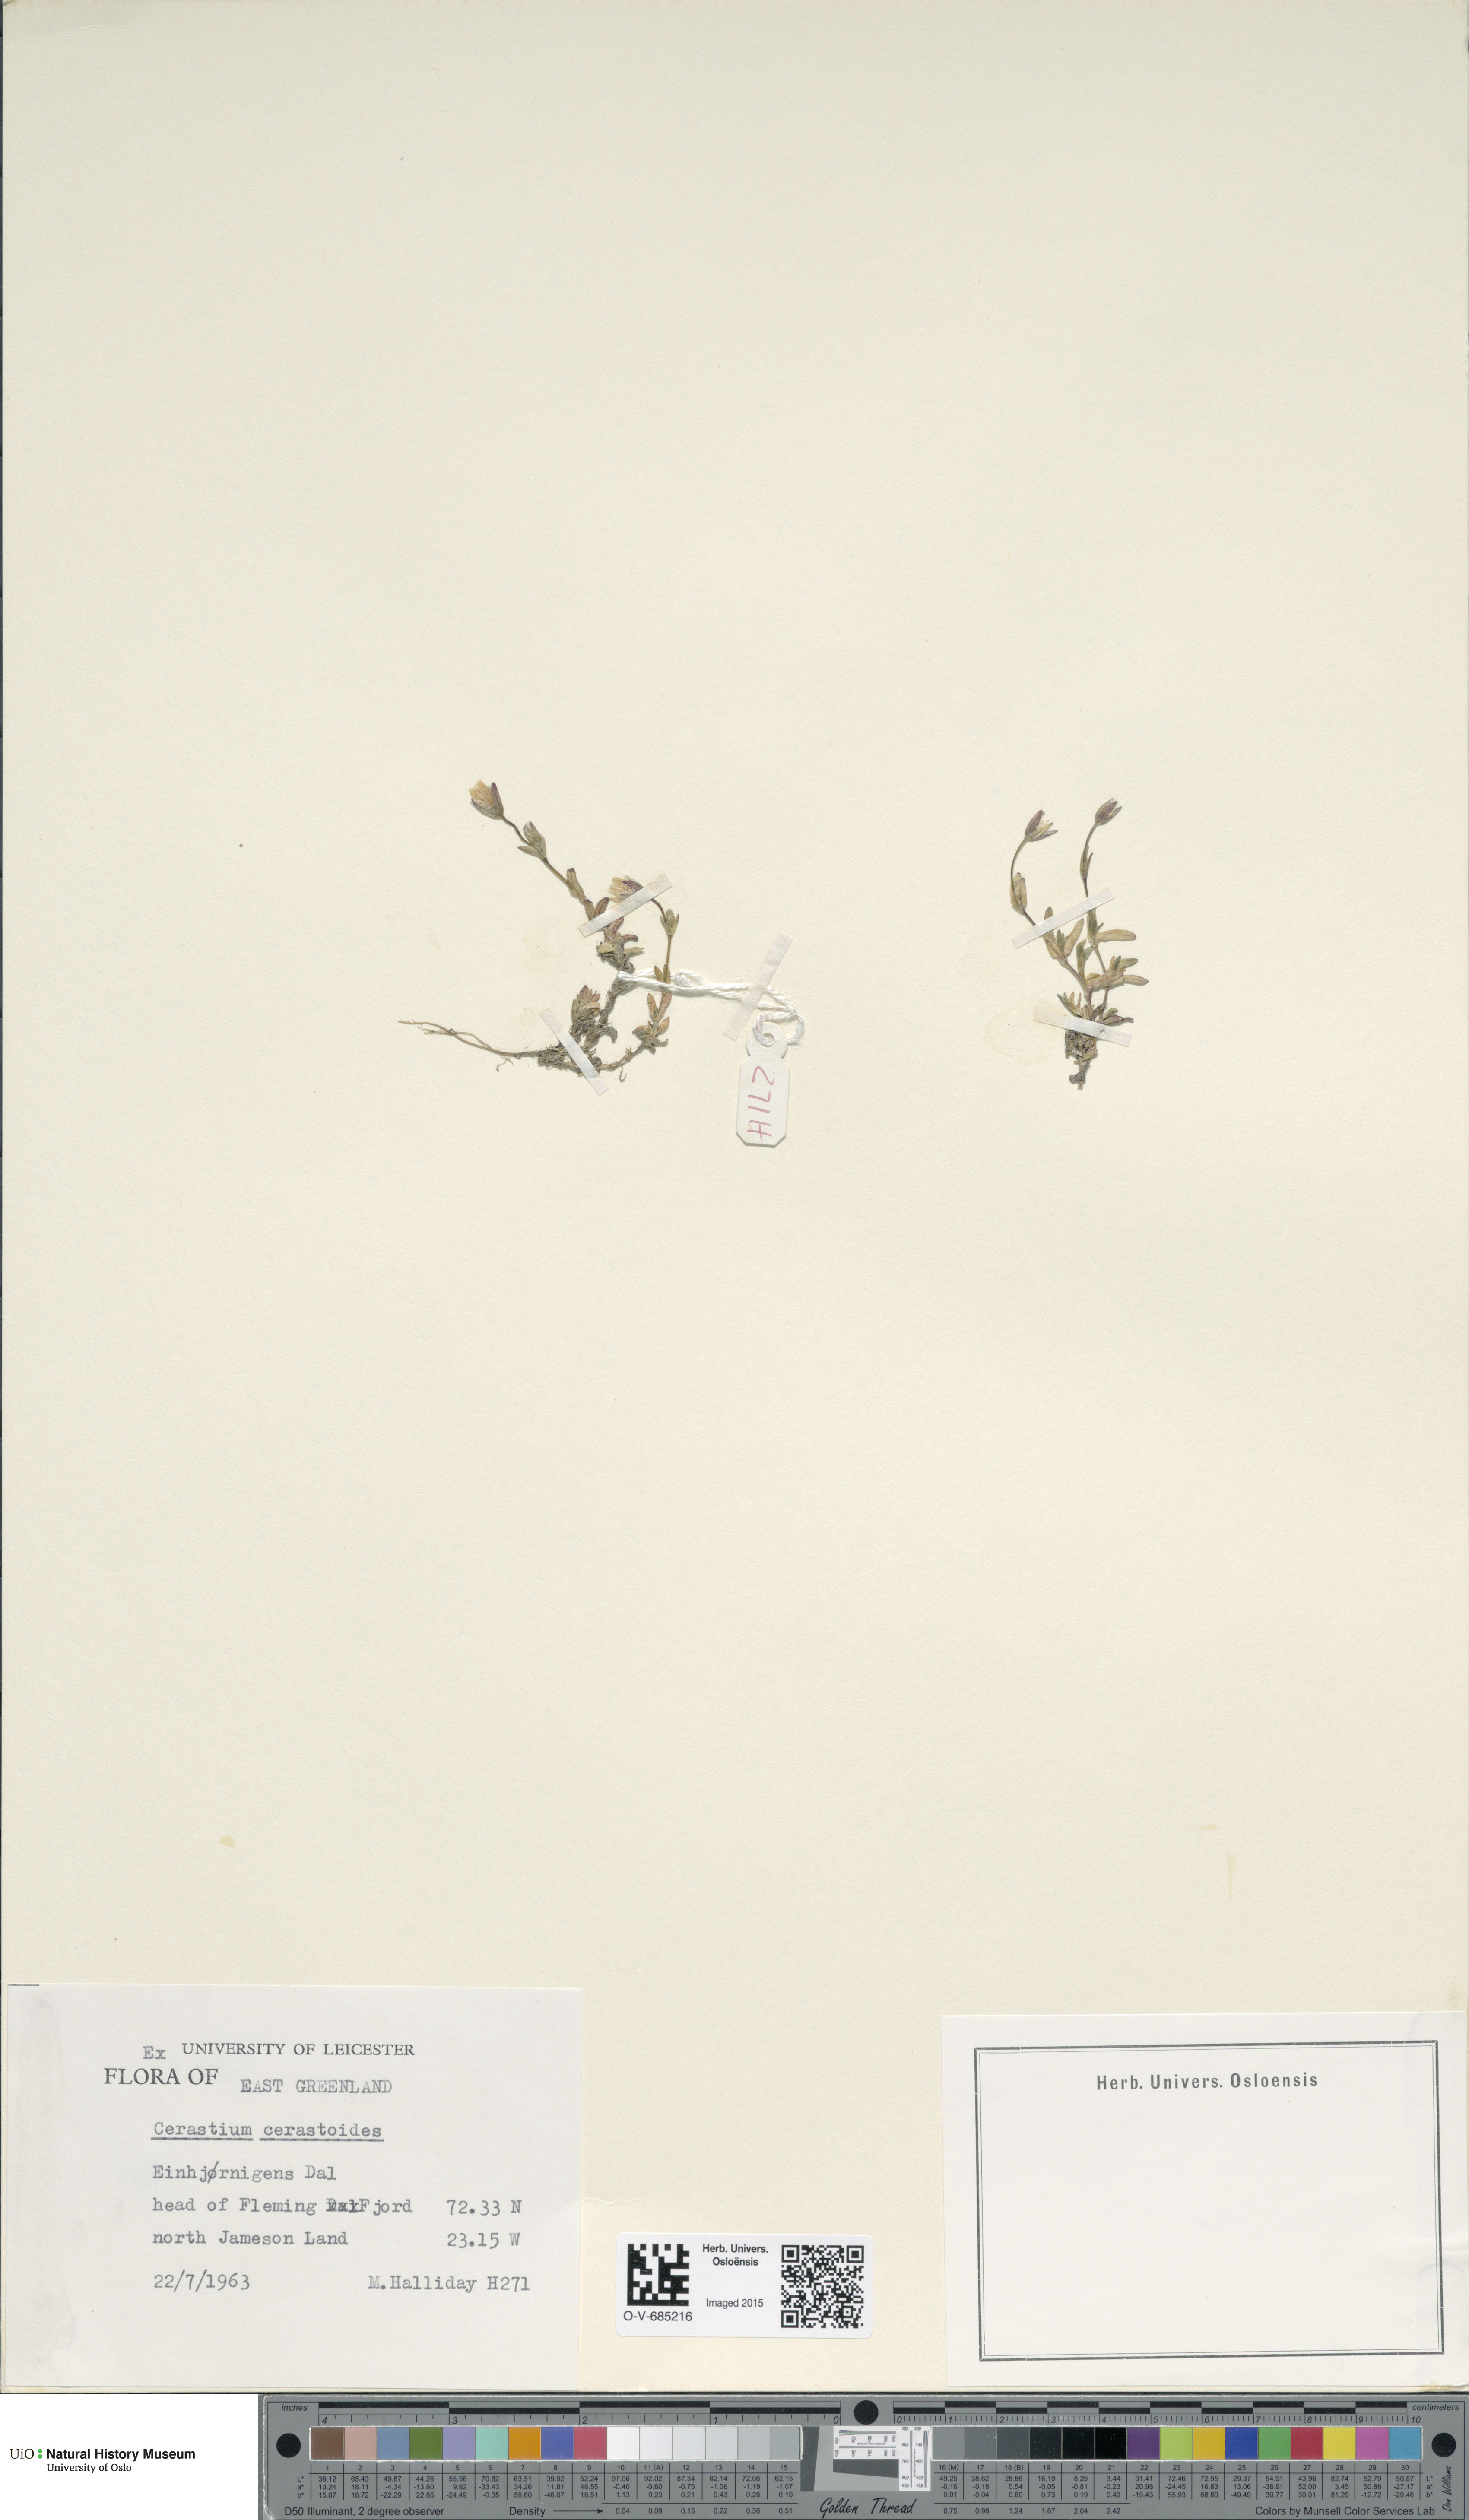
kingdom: Plantae
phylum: Tracheophyta
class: Magnoliopsida
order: Caryophyllales
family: Caryophyllaceae
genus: Dichodon
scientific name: Dichodon cerastoides
